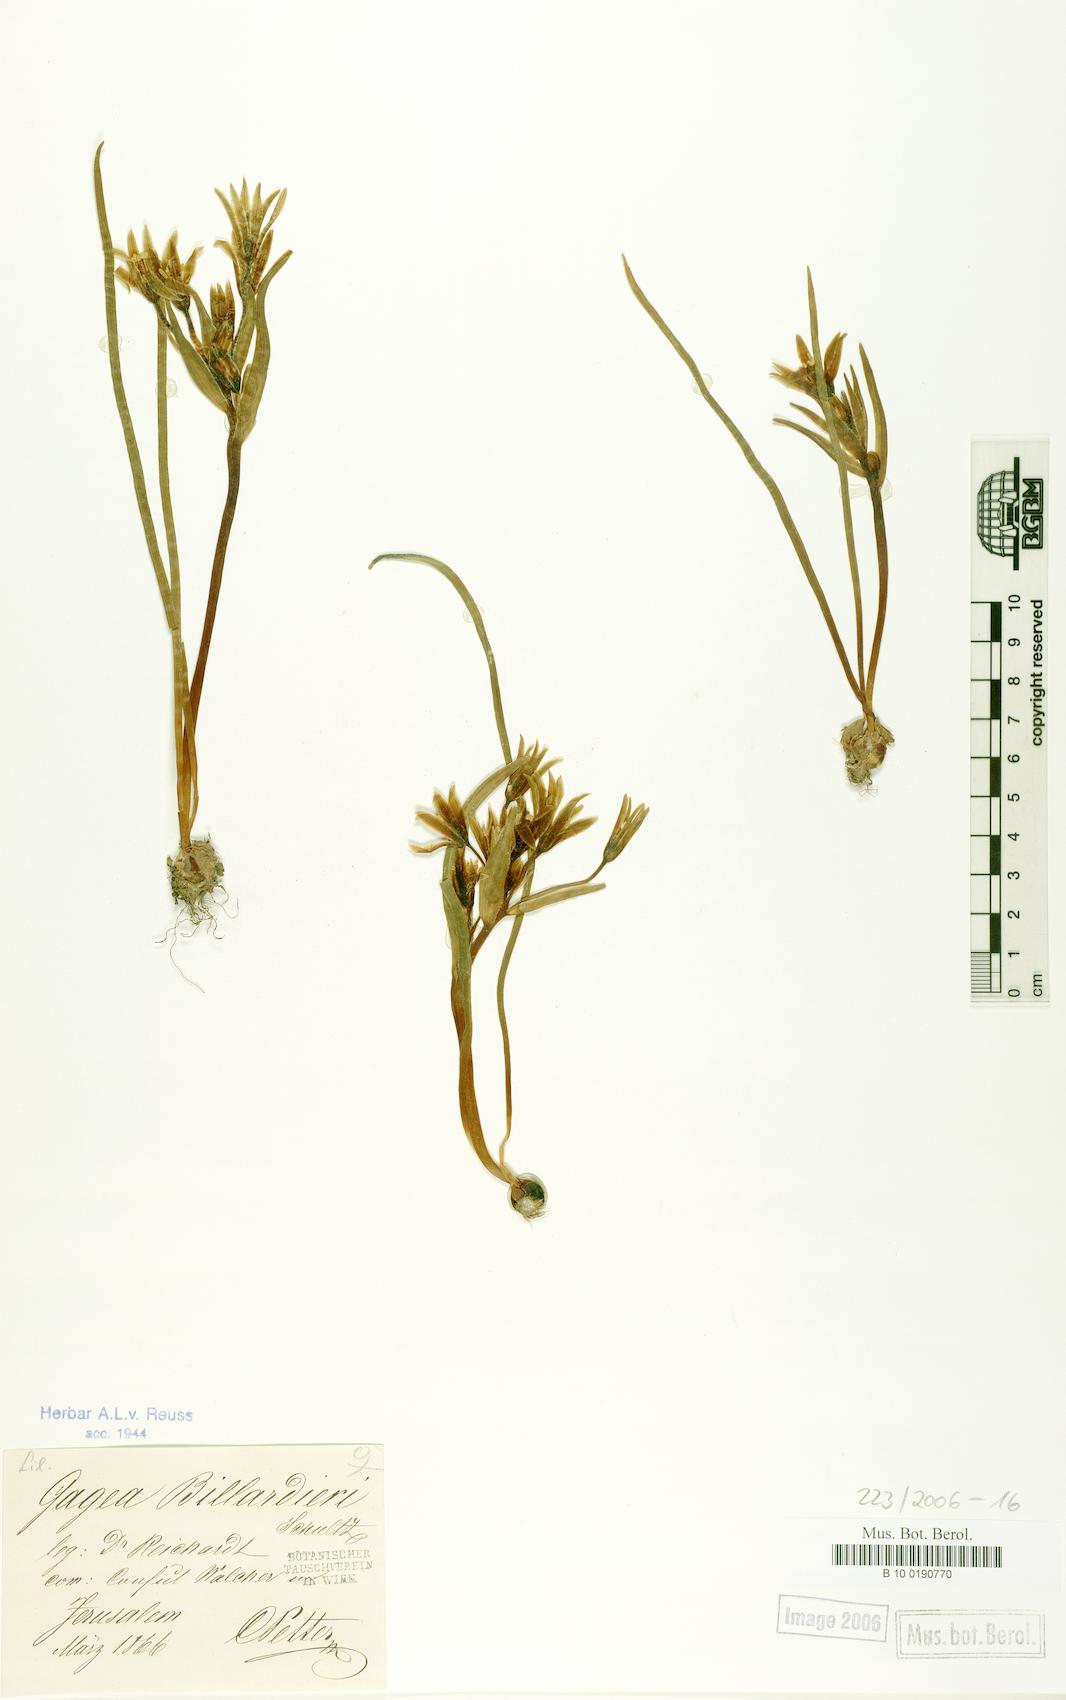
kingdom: Plantae
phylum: Tracheophyta
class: Liliopsida
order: Liliales
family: Liliaceae
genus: Gagea
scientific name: Gagea bohemica
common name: Early star-of-bethlehem
